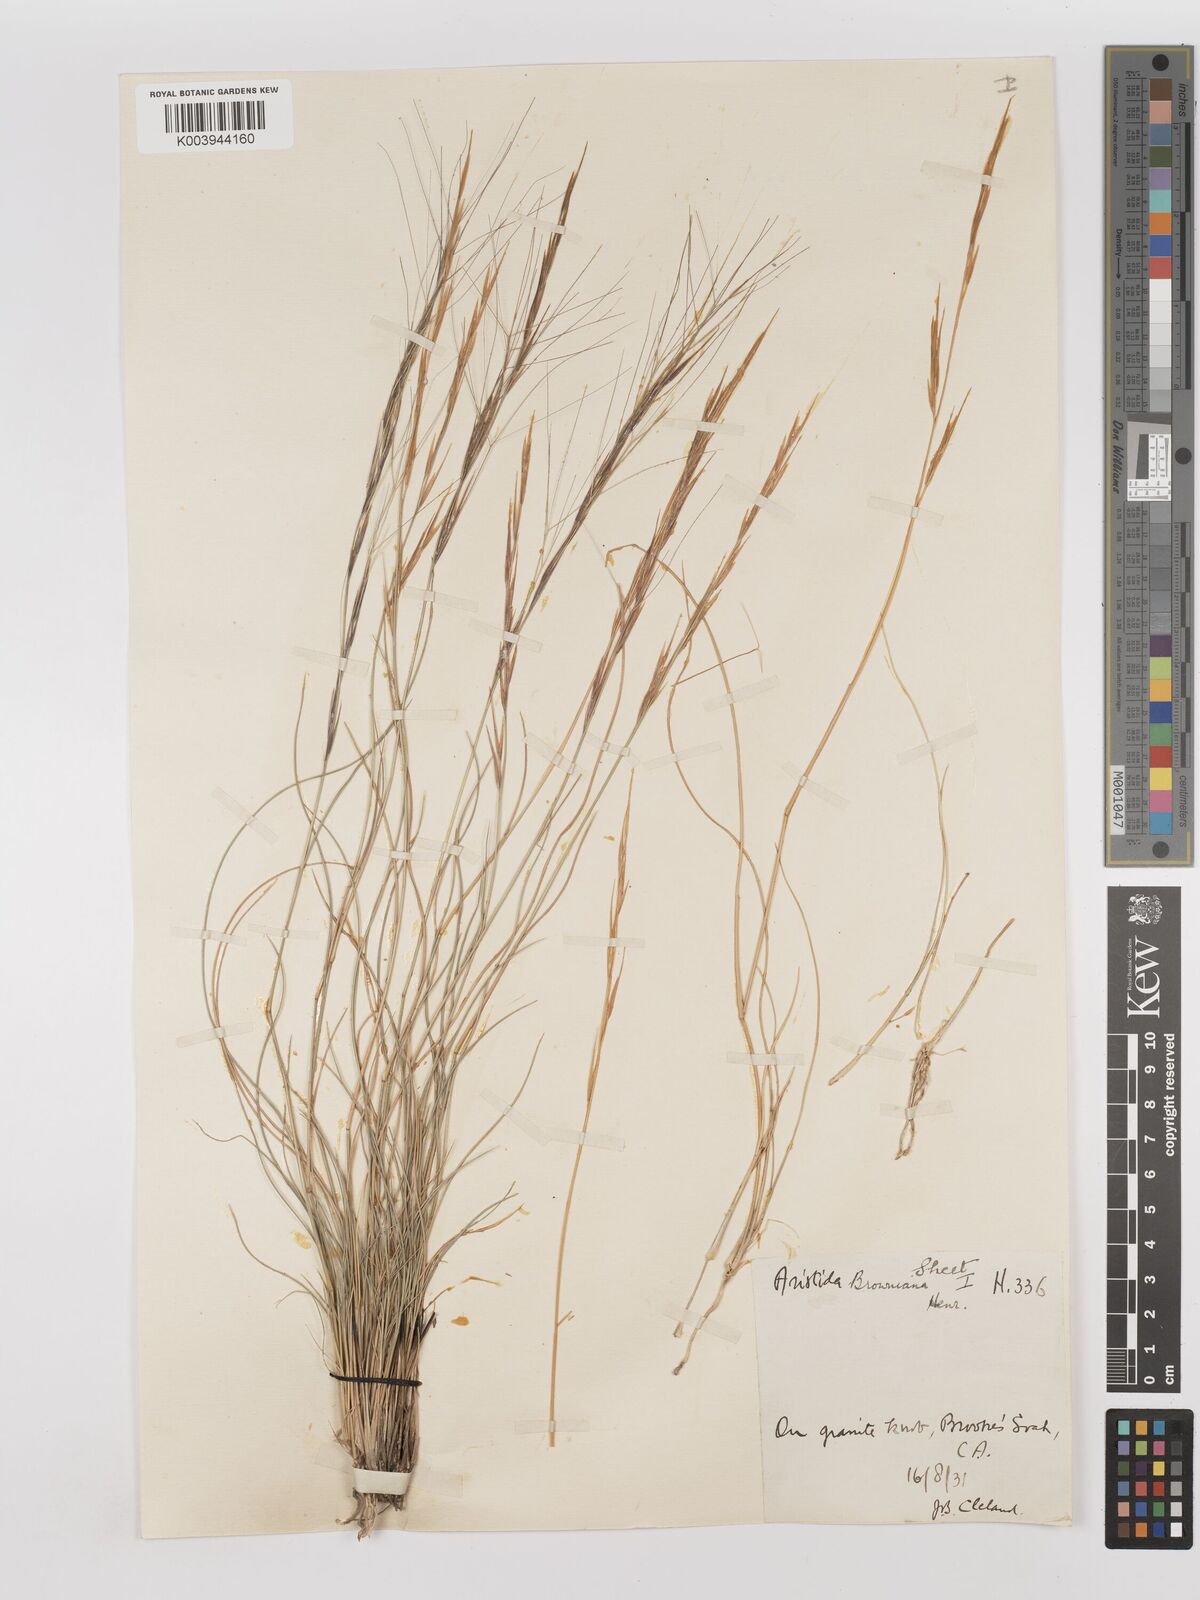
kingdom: Plantae
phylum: Tracheophyta
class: Liliopsida
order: Poales
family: Poaceae
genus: Aristida
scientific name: Aristida holathera
